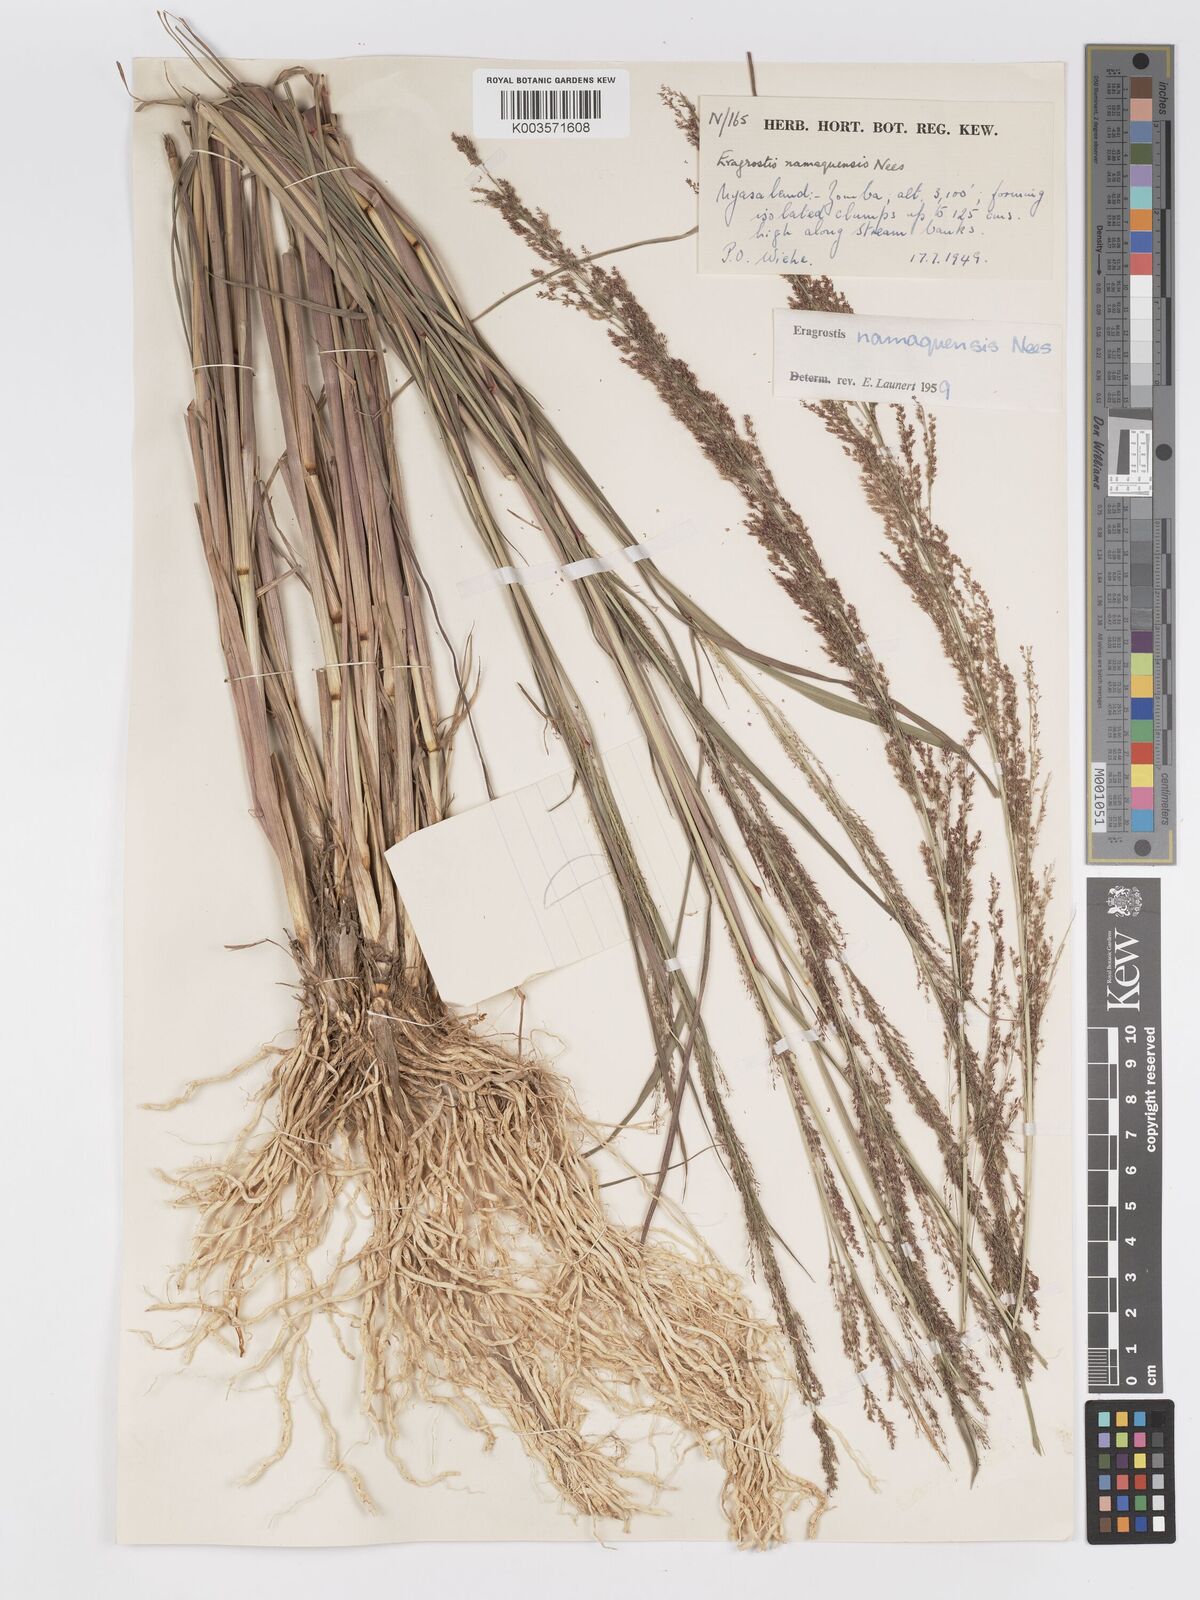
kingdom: Plantae
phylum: Tracheophyta
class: Liliopsida
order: Poales
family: Poaceae
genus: Eragrostis
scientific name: Eragrostis japonica
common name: Pond lovegrass
